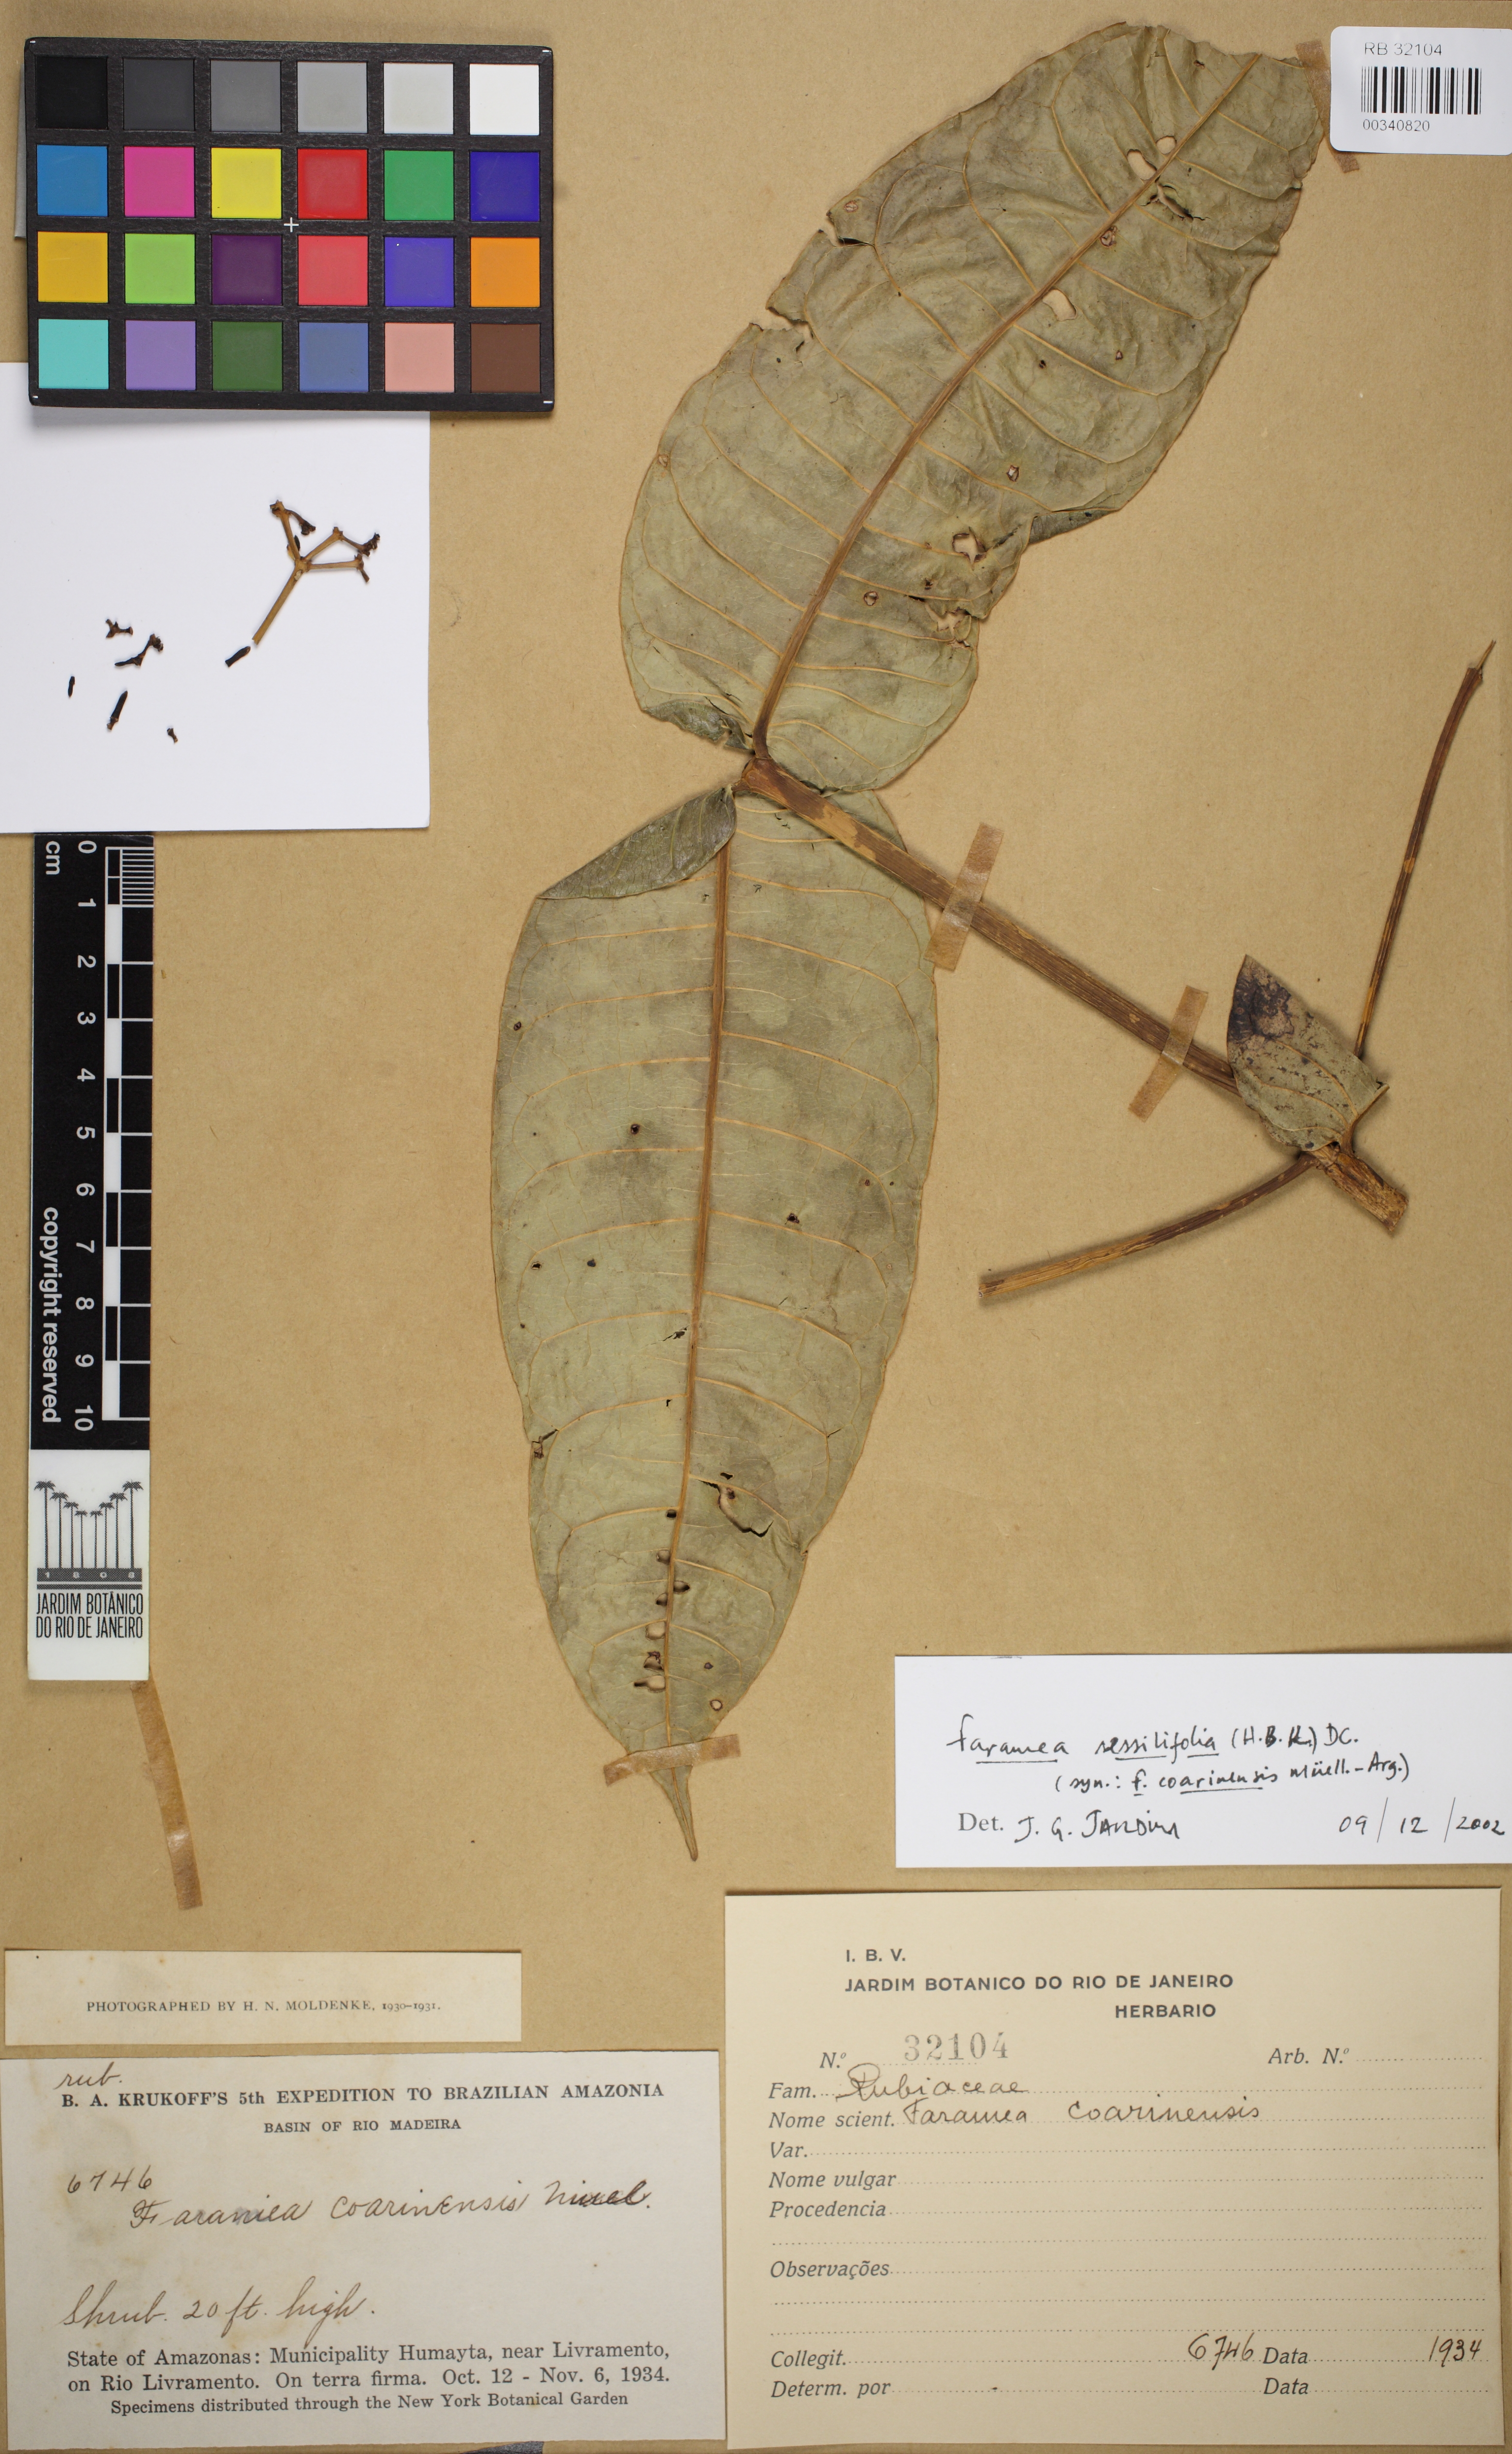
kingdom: Plantae
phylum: Tracheophyta
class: Magnoliopsida
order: Gentianales
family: Rubiaceae
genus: Faramea
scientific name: Faramea sessilifolia
